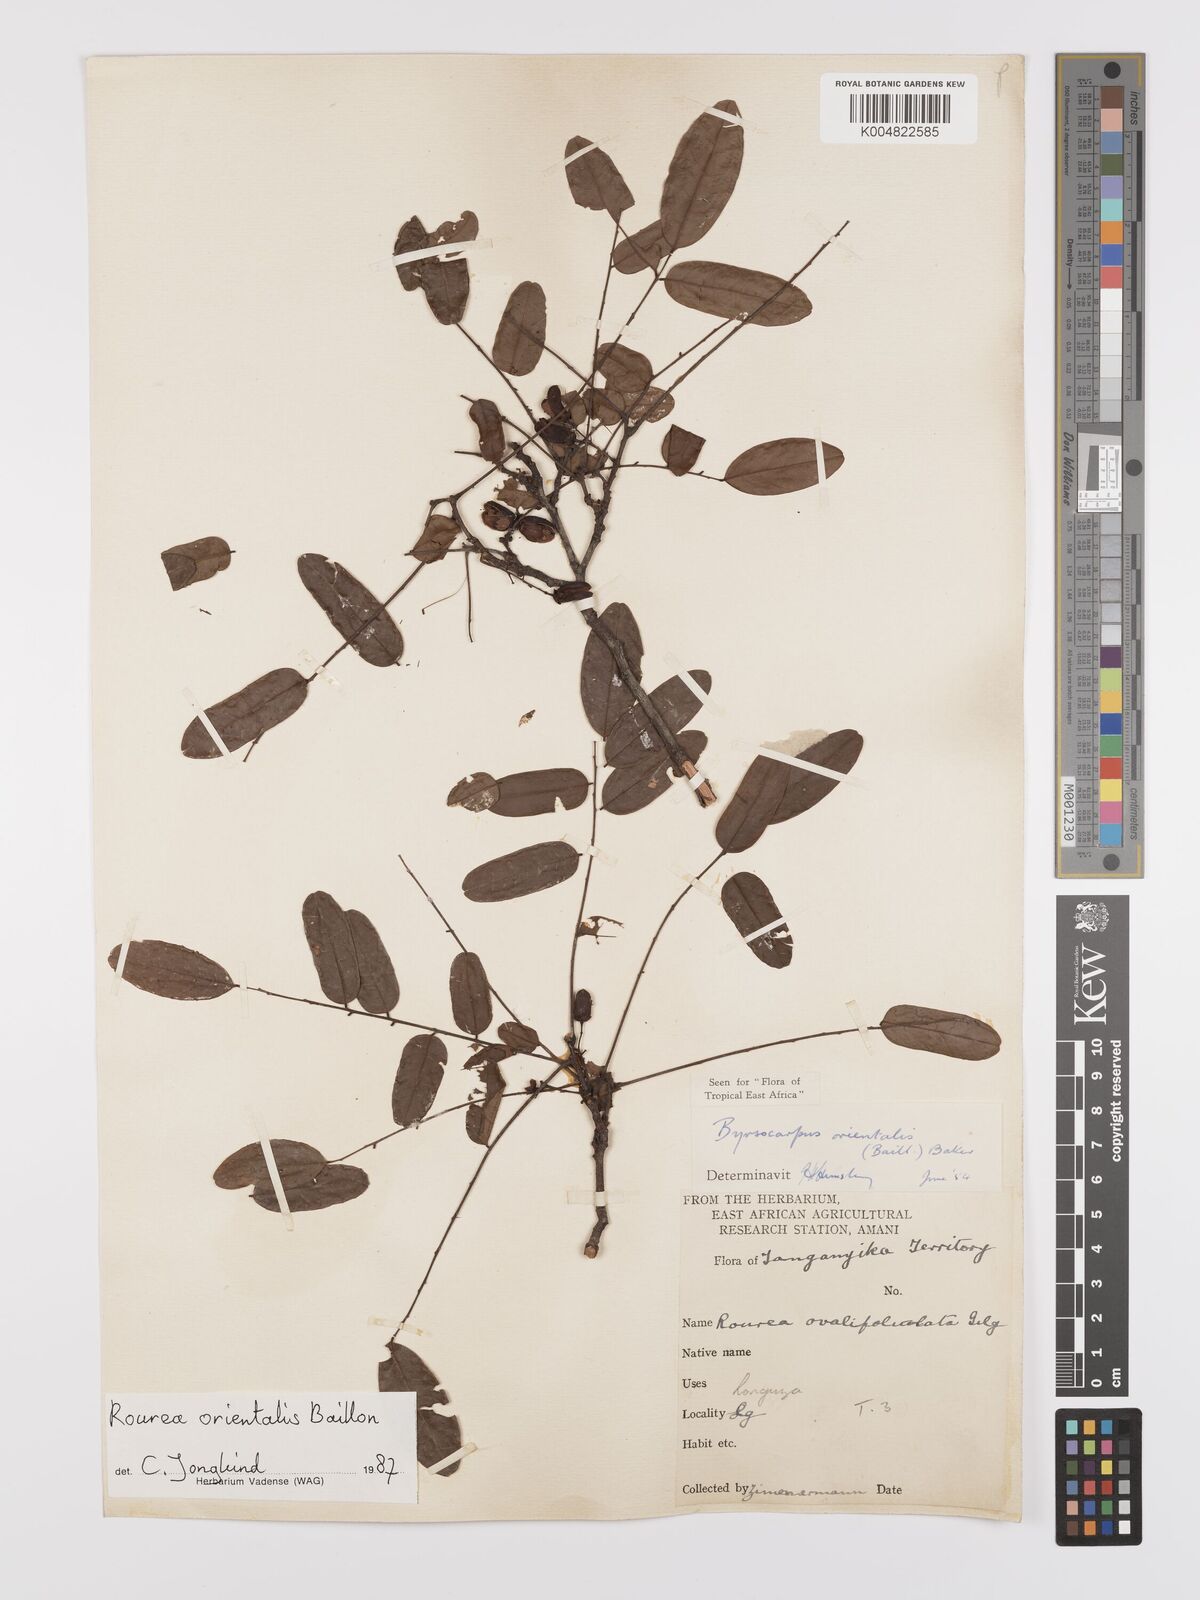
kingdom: Plantae
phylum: Tracheophyta
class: Magnoliopsida
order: Oxalidales
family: Connaraceae
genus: Rourea
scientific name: Rourea orientalis
